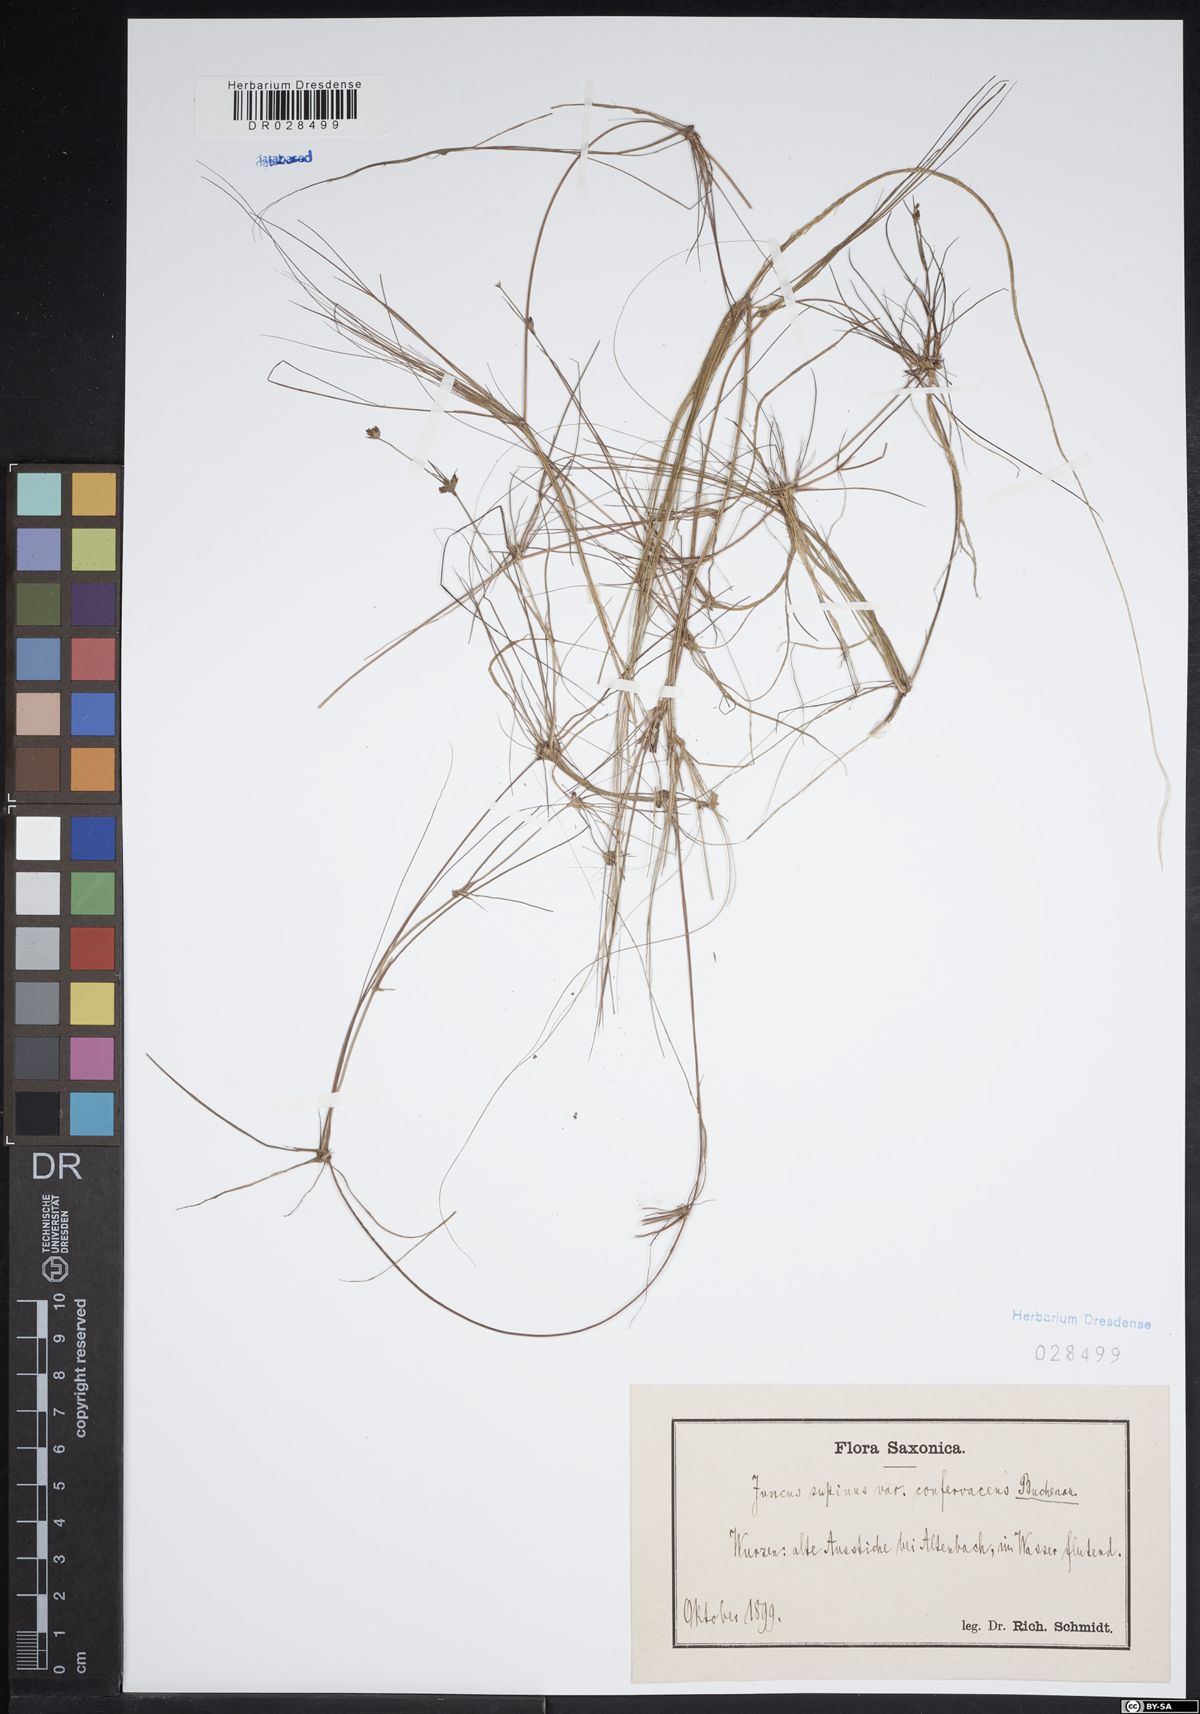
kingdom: Plantae
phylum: Tracheophyta
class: Liliopsida
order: Poales
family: Juncaceae
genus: Juncus
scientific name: Juncus bulbosus
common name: Bulbous rush
